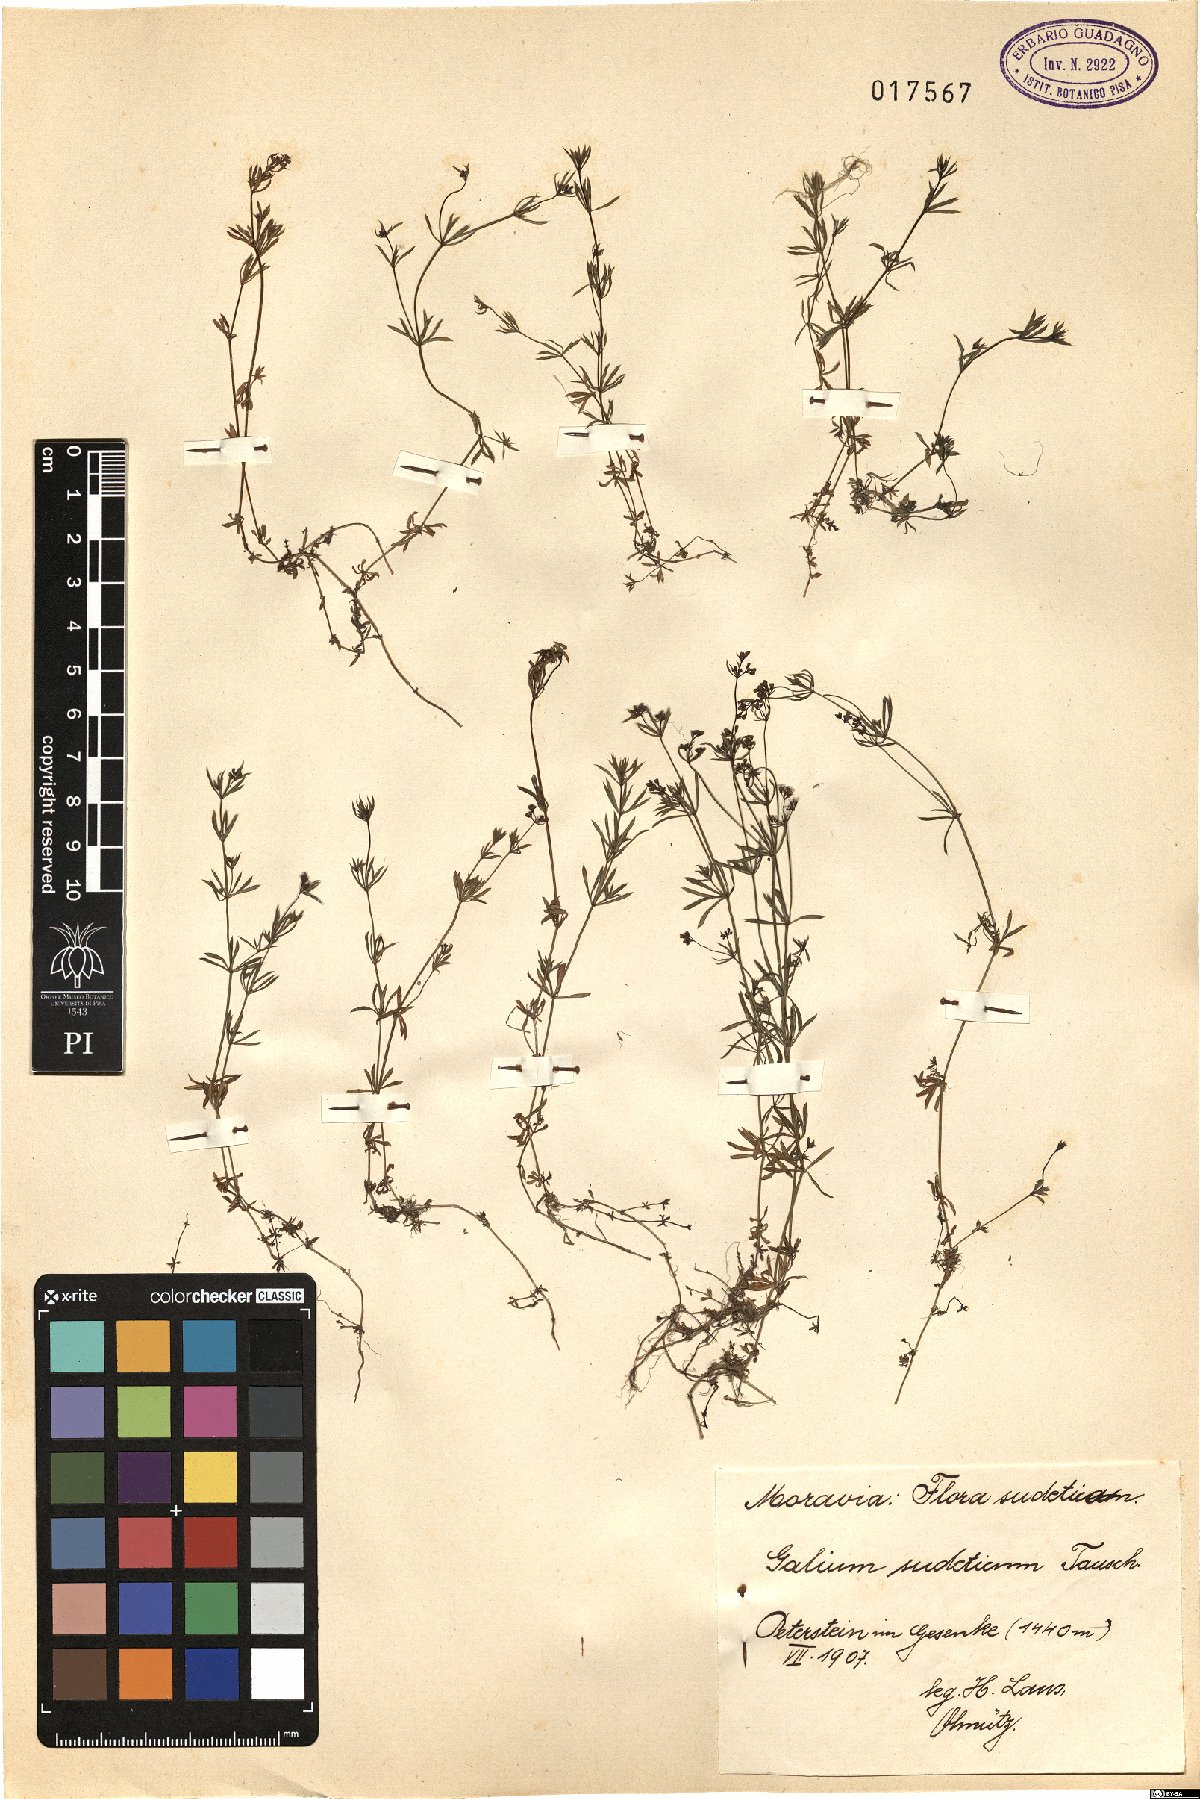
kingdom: Plantae
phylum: Tracheophyta
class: Magnoliopsida
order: Gentianales
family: Rubiaceae
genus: Galium
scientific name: Galium sudeticum
